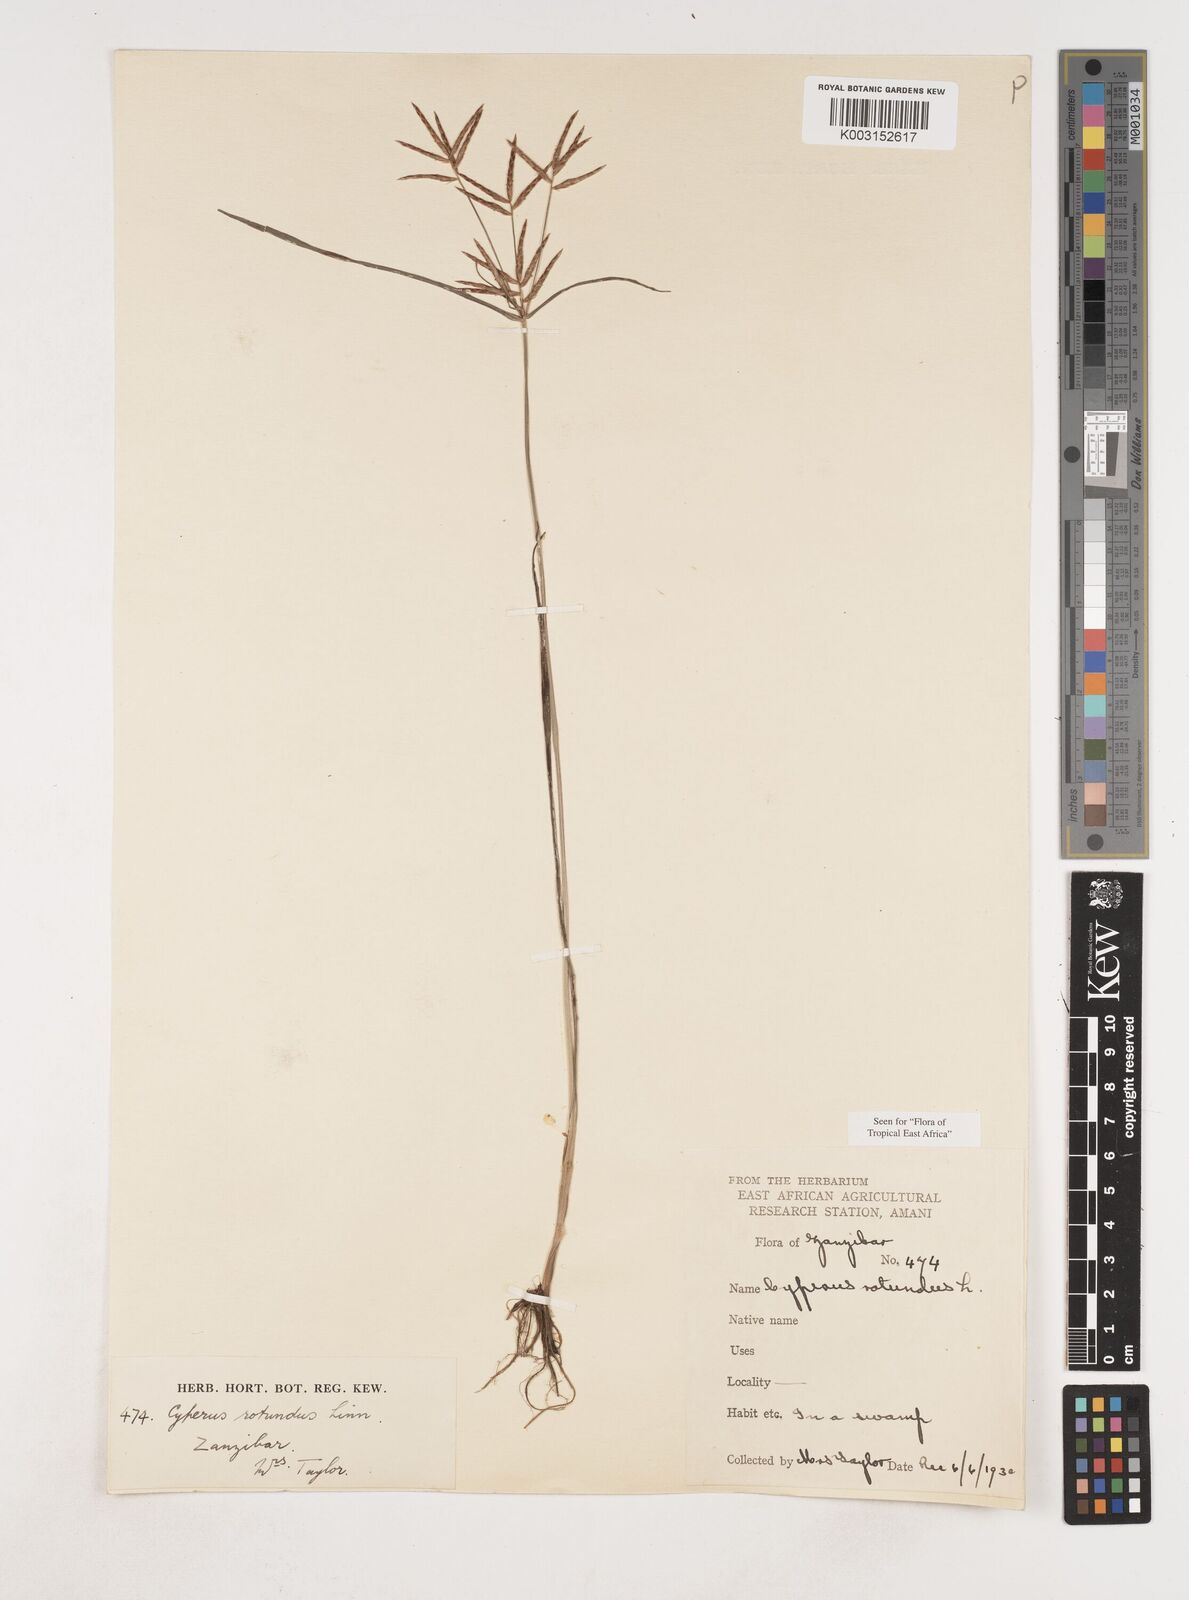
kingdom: Plantae
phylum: Tracheophyta
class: Liliopsida
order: Poales
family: Cyperaceae
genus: Cyperus
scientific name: Cyperus rotundus
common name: Nutgrass
